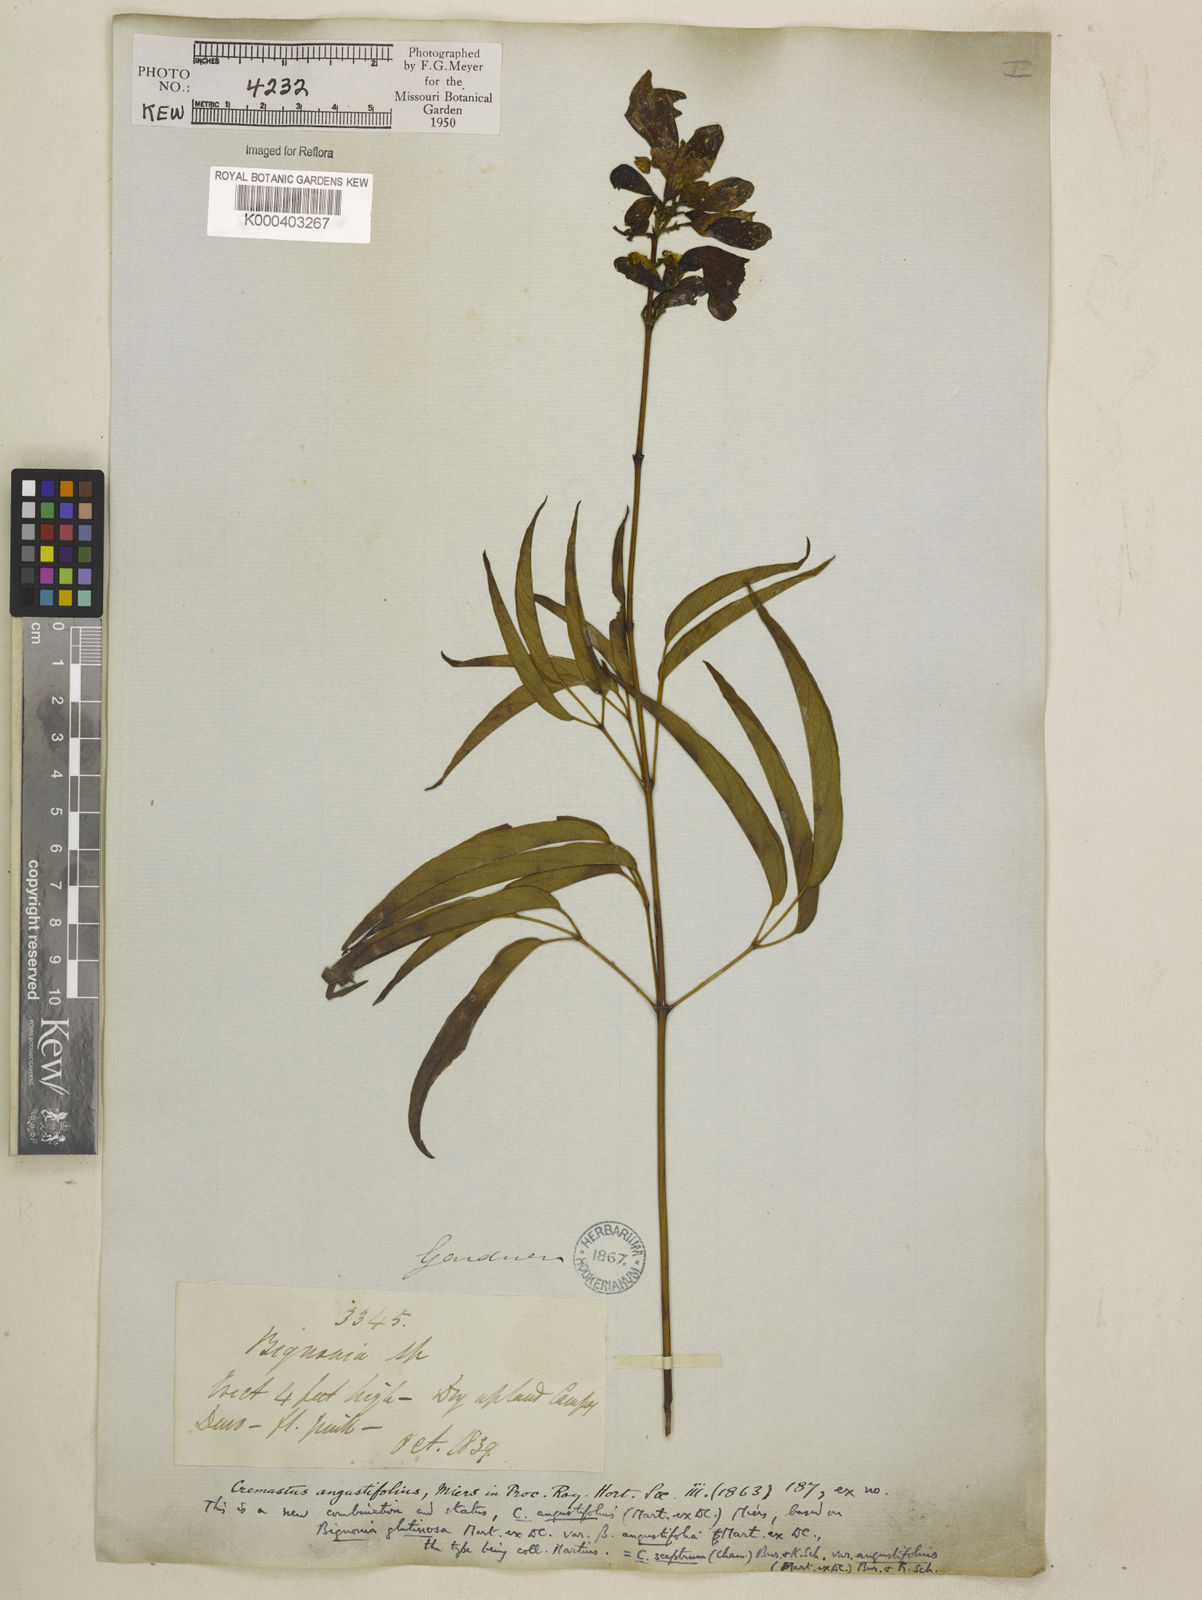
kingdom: Plantae
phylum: Tracheophyta
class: Magnoliopsida
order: Lamiales
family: Bignoniaceae
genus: Cuspidaria
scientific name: Cuspidaria sceptrum
